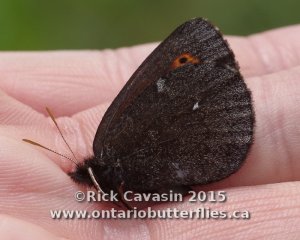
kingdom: Animalia
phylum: Arthropoda
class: Insecta
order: Lepidoptera
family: Nymphalidae
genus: Erebia
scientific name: Erebia disa
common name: Taiga Alpine
